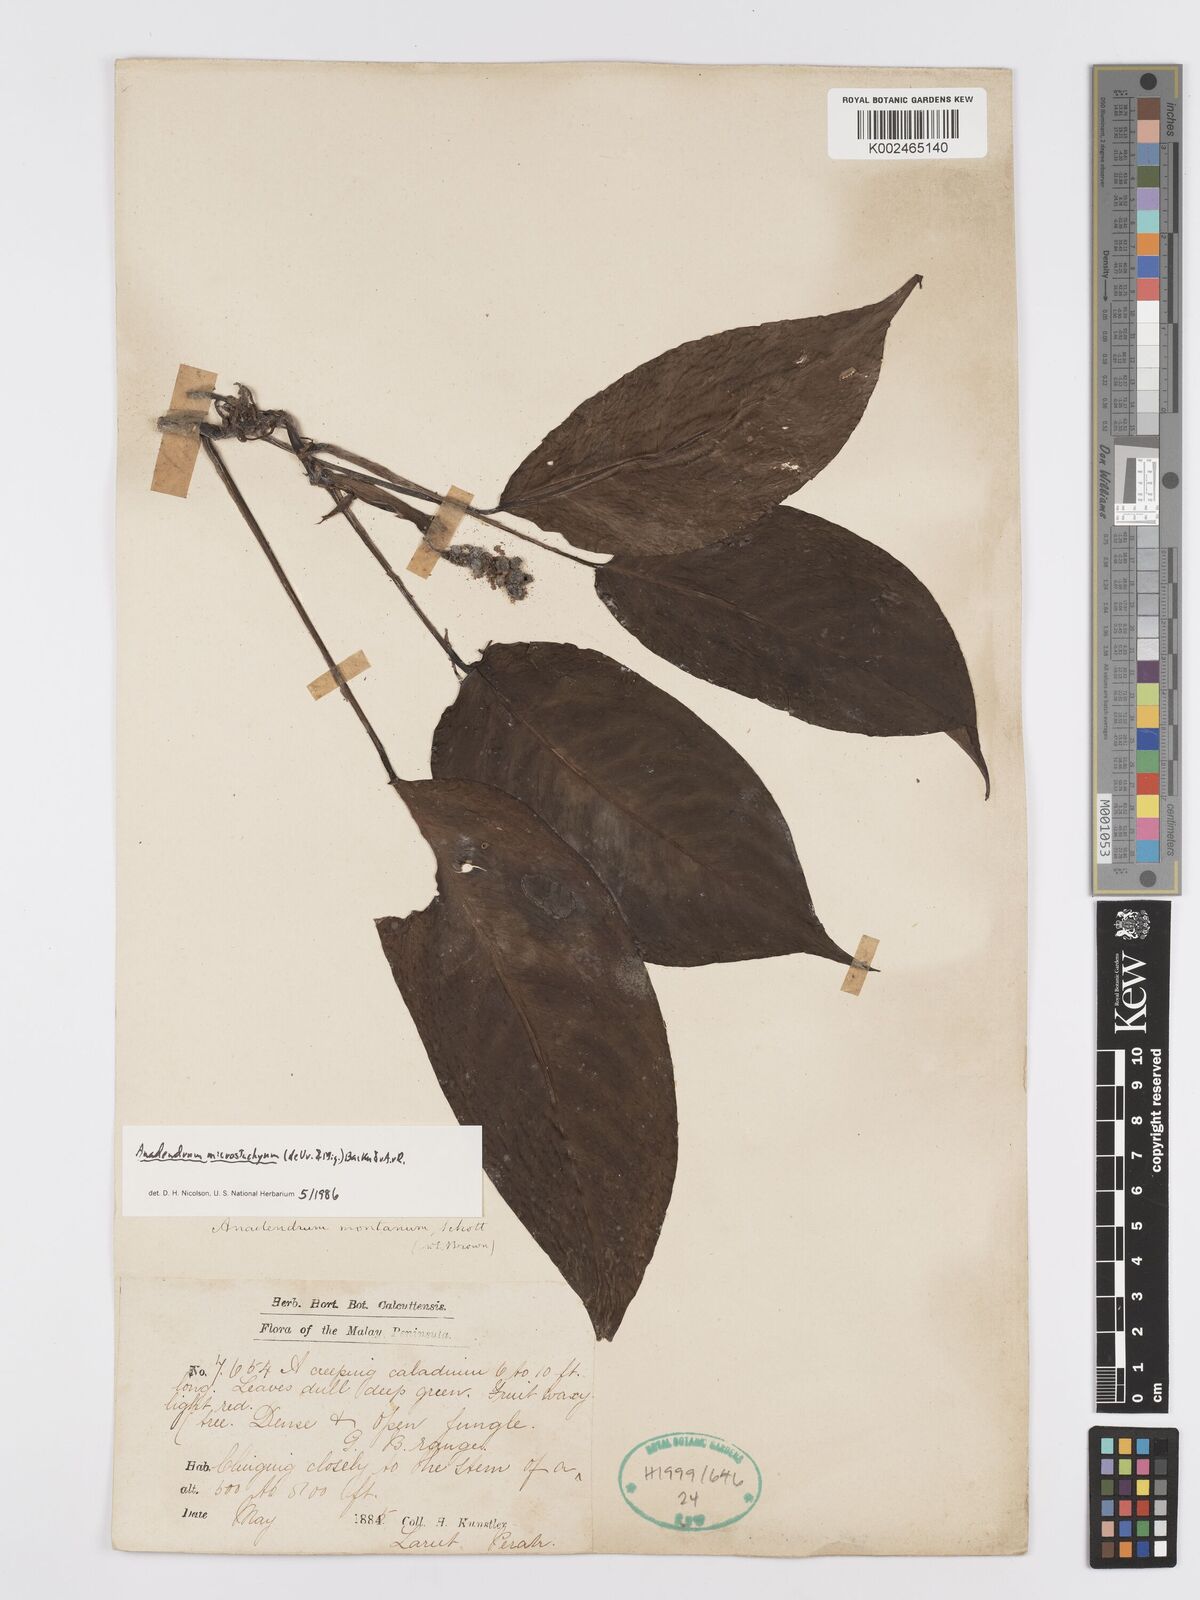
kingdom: Plantae
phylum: Tracheophyta
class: Liliopsida
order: Alismatales
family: Araceae
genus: Anadendrum
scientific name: Anadendrum microstachyum
